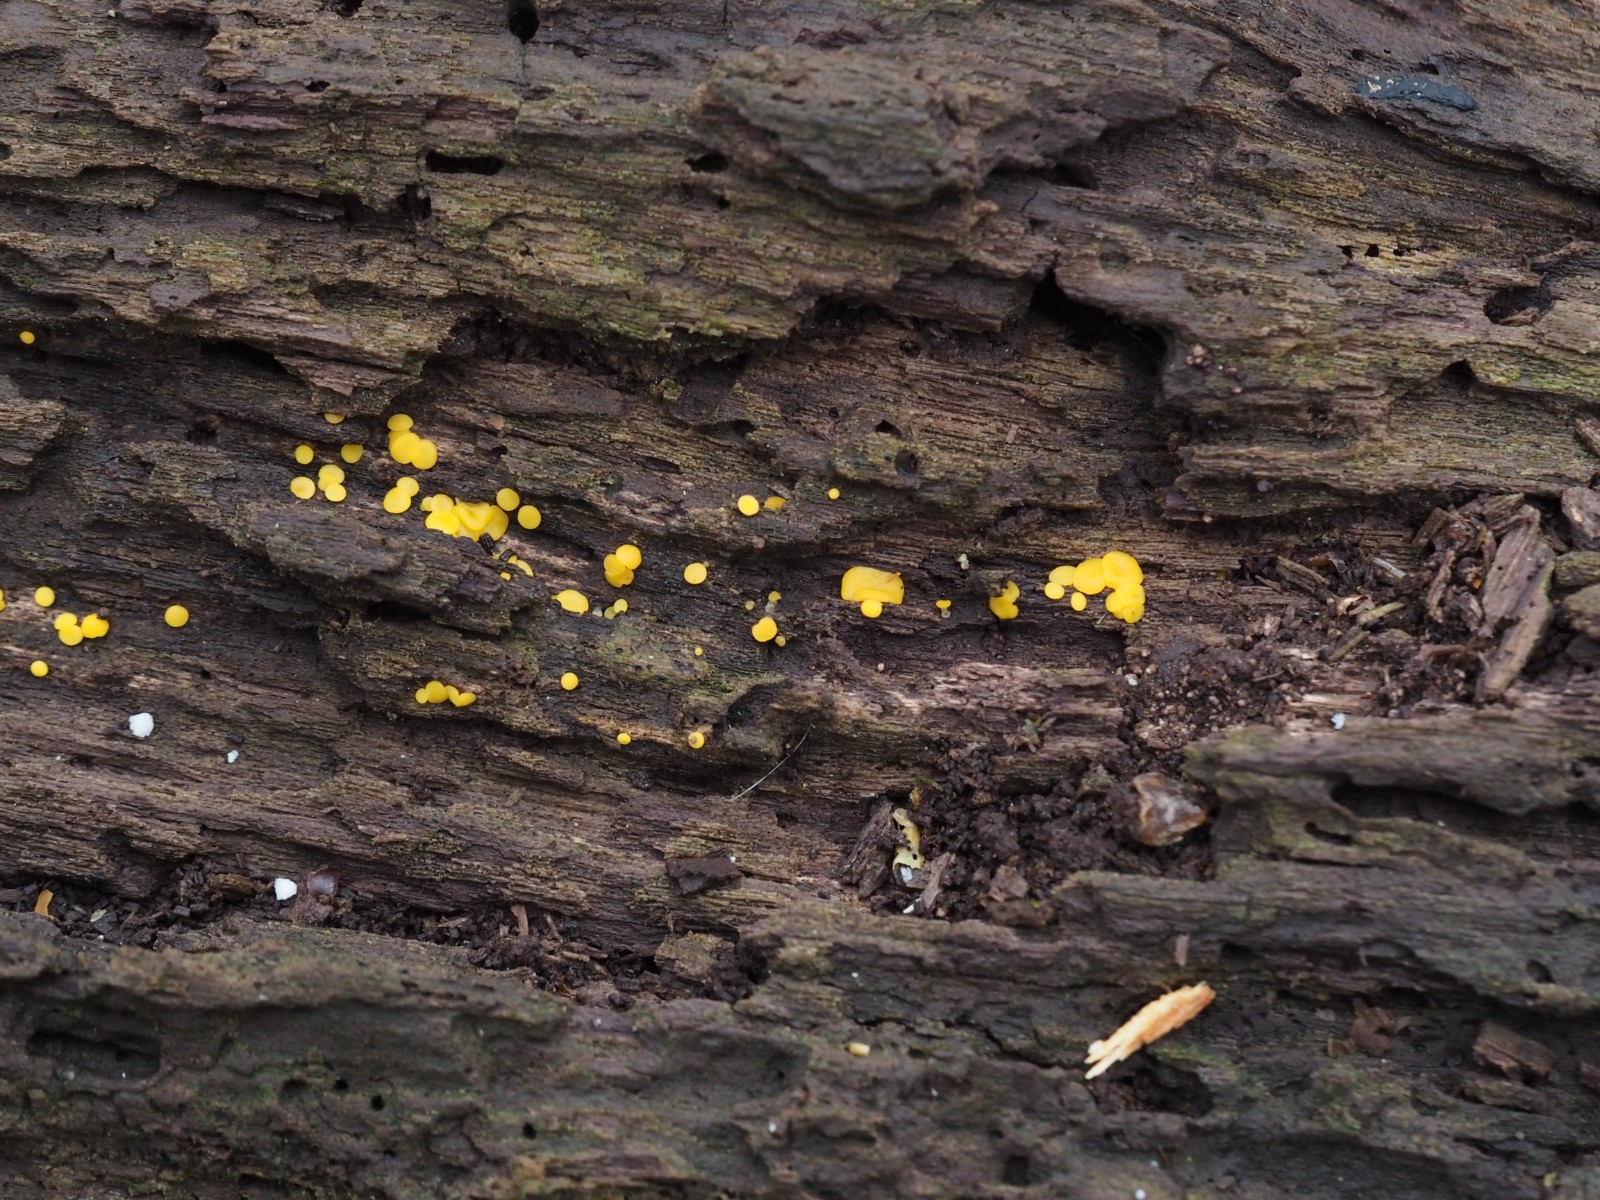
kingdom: Fungi
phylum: Ascomycota
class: Leotiomycetes
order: Helotiales
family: Pezizellaceae
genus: Calycina
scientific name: Calycina citrina
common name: almindelig gulskive
